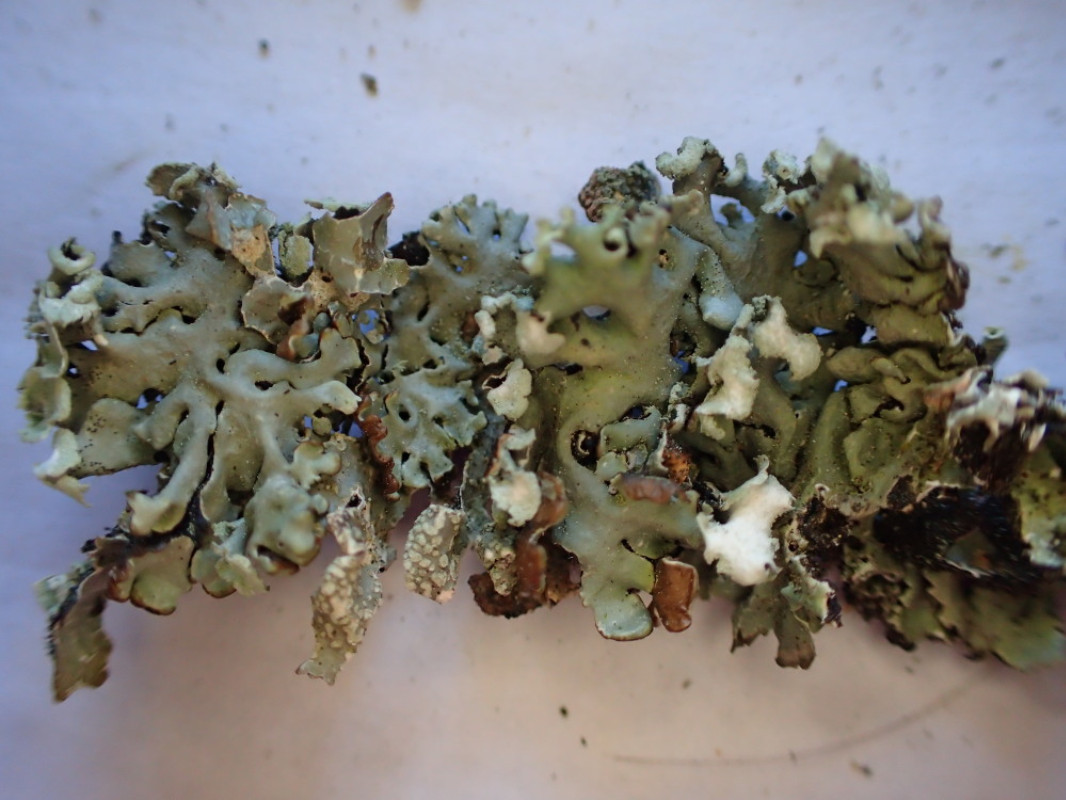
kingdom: Fungi
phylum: Ascomycota
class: Lecanoromycetes
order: Lecanorales
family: Parmeliaceae
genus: Hypogymnia
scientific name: Hypogymnia physodes
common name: almindelig kvistlav
